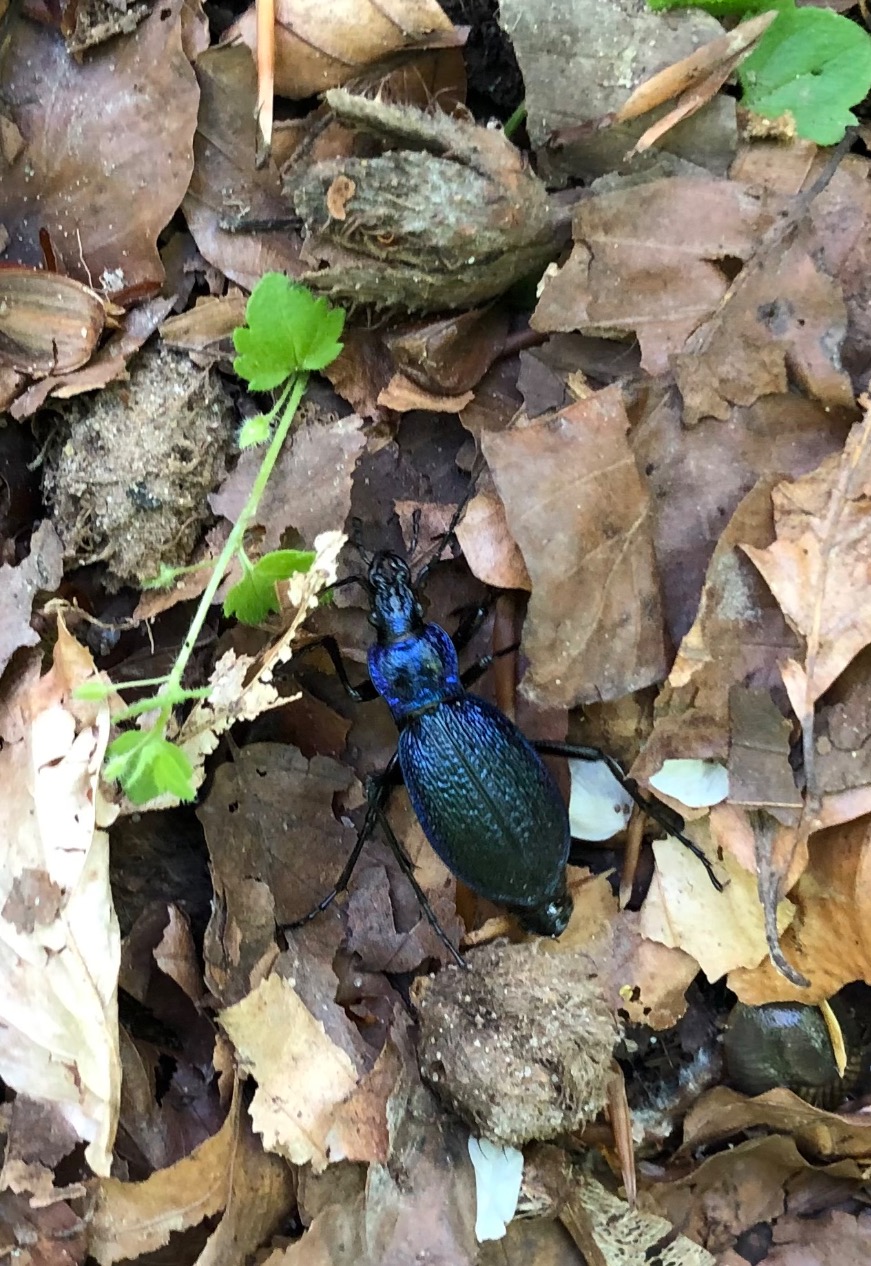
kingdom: Animalia
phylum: Arthropoda
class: Insecta
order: Coleoptera
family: Carabidae
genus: Carabus
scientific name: Carabus intricatus
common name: Bøgeløber
